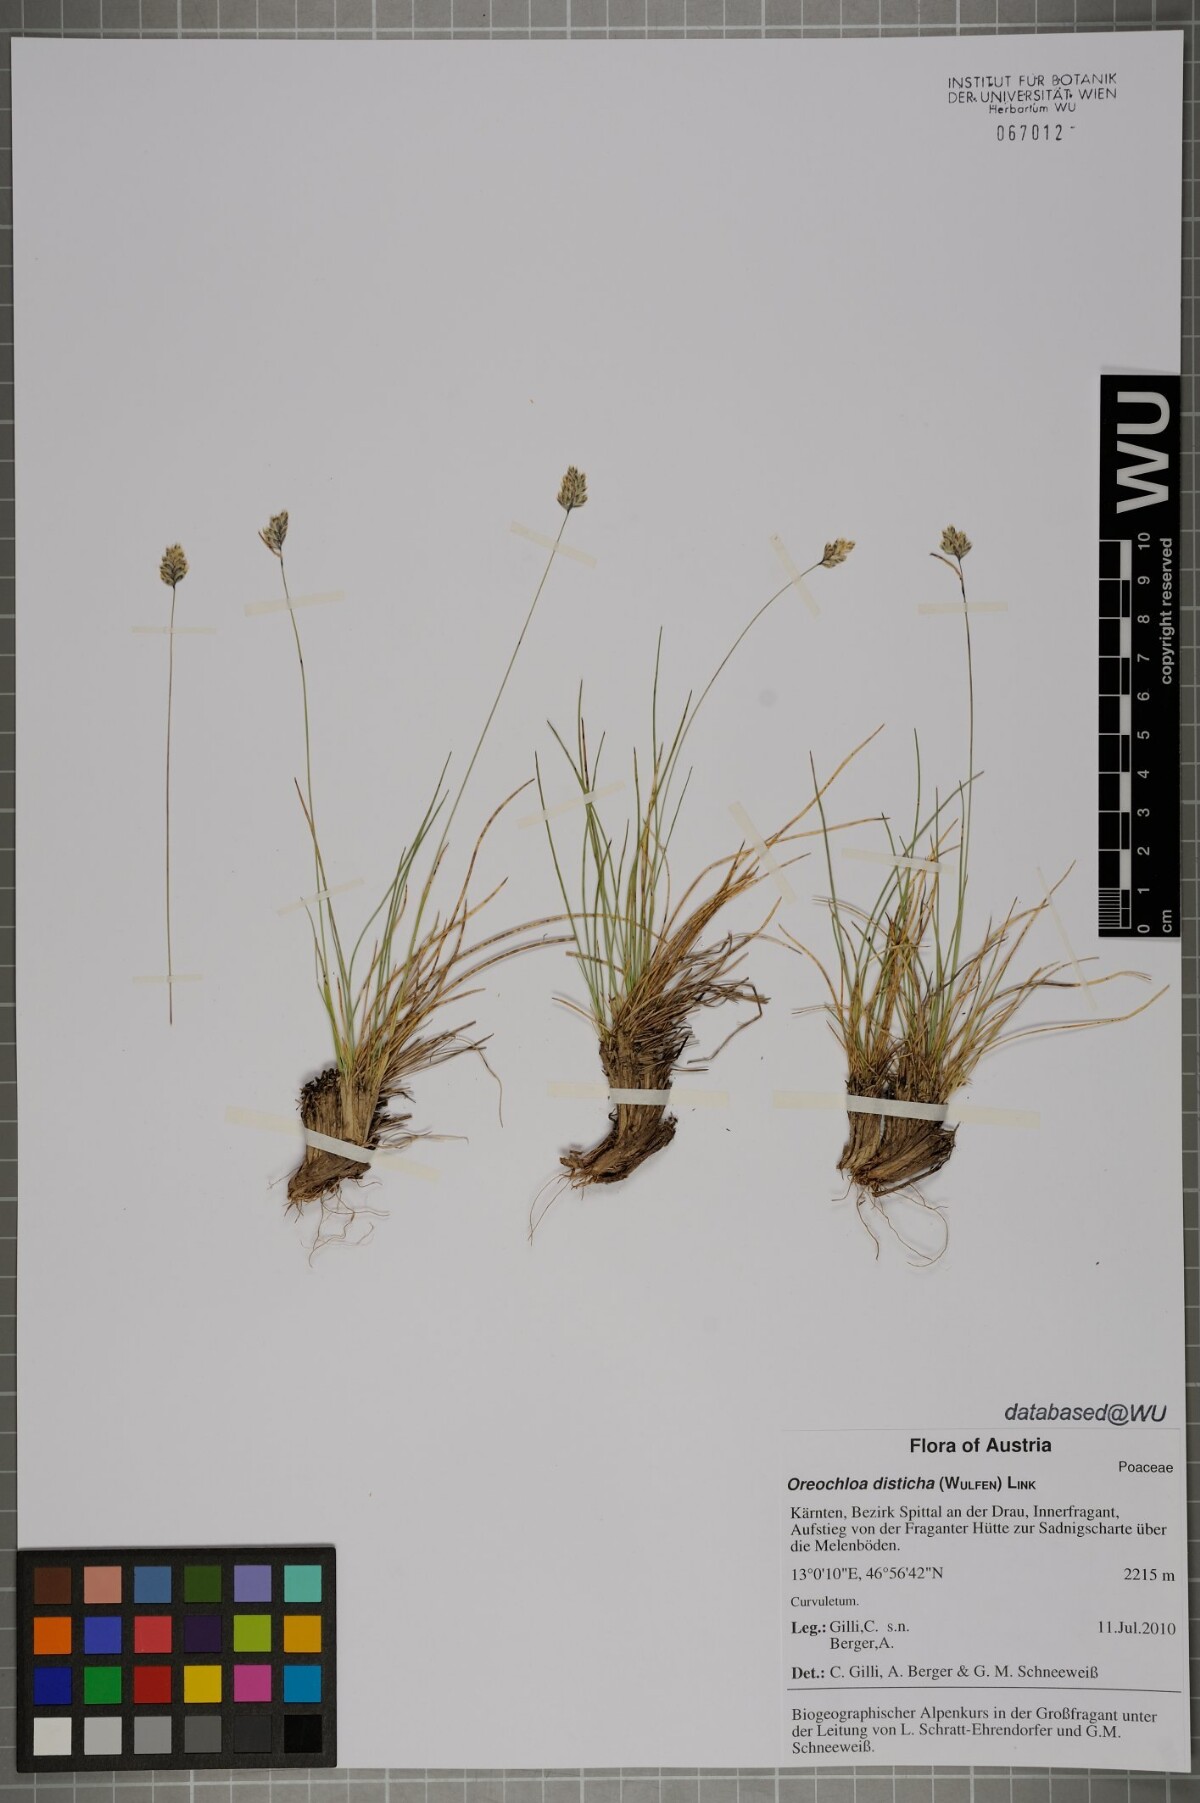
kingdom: Plantae
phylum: Tracheophyta
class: Liliopsida
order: Poales
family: Poaceae
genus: Oreochloa
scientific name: Oreochloa disticha
